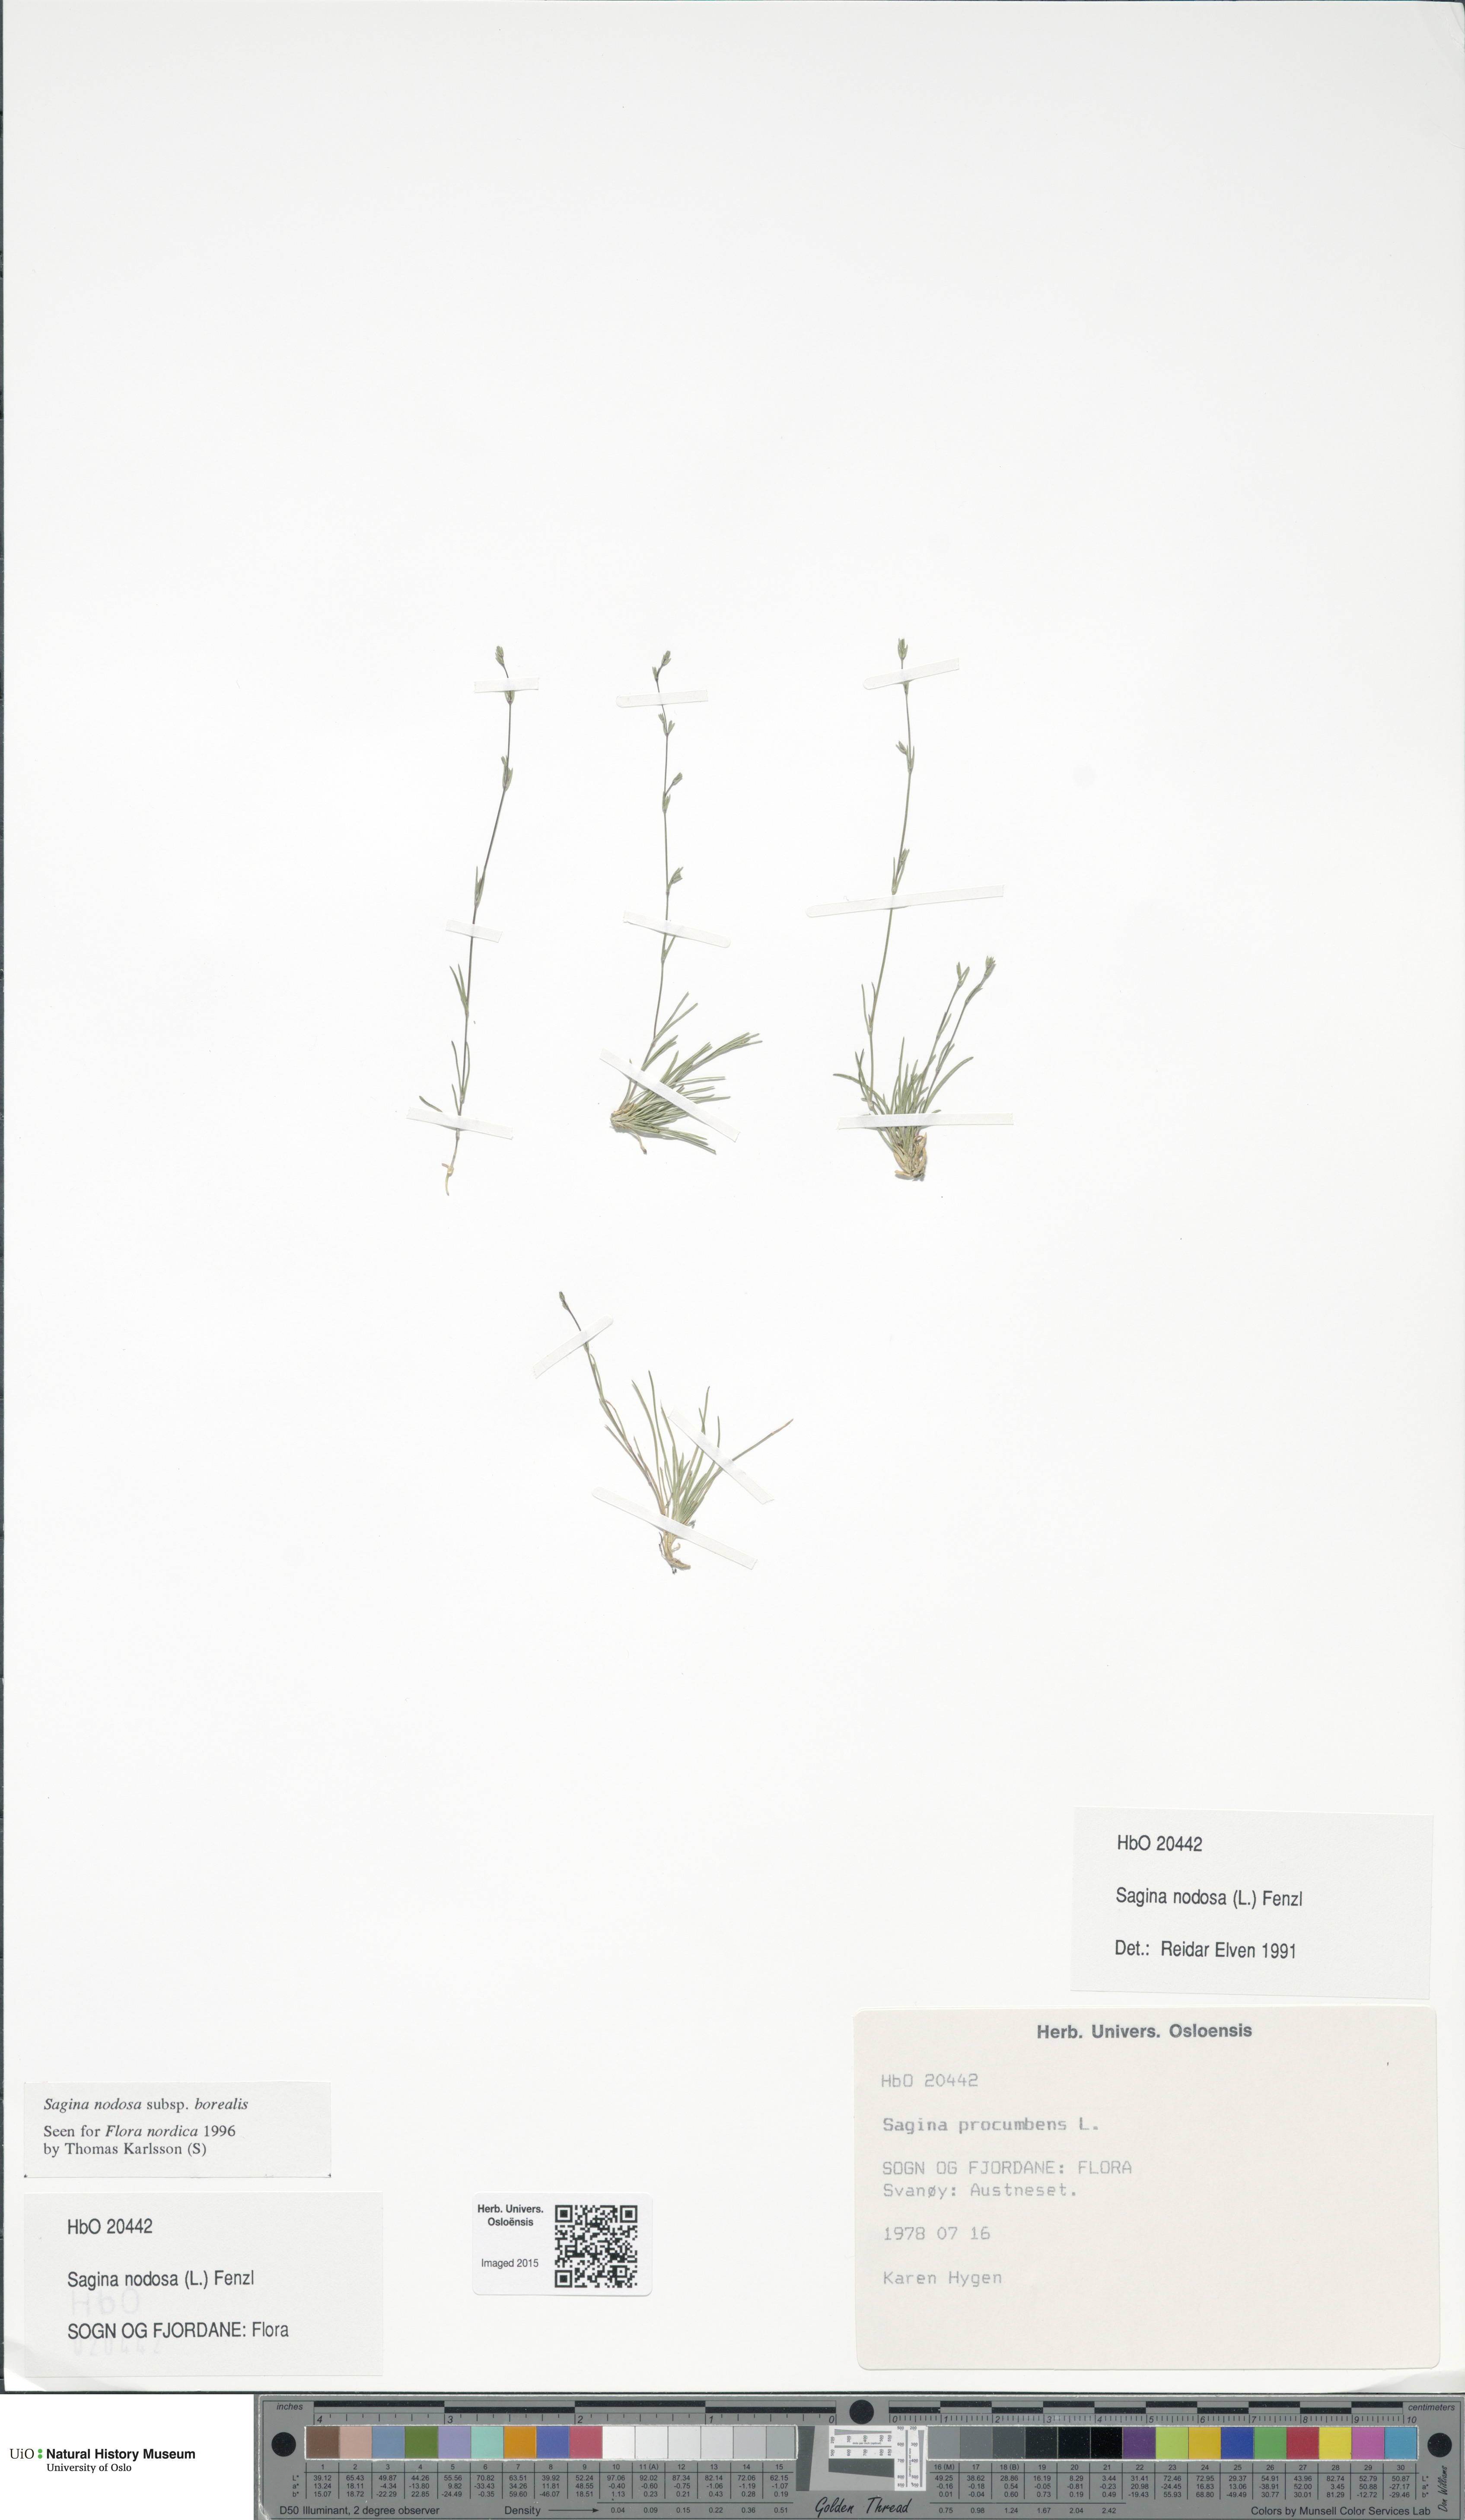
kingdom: Plantae
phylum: Tracheophyta
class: Magnoliopsida
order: Caryophyllales
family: Caryophyllaceae
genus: Sagina
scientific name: Sagina nodosa
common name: Knotted pearlwort
